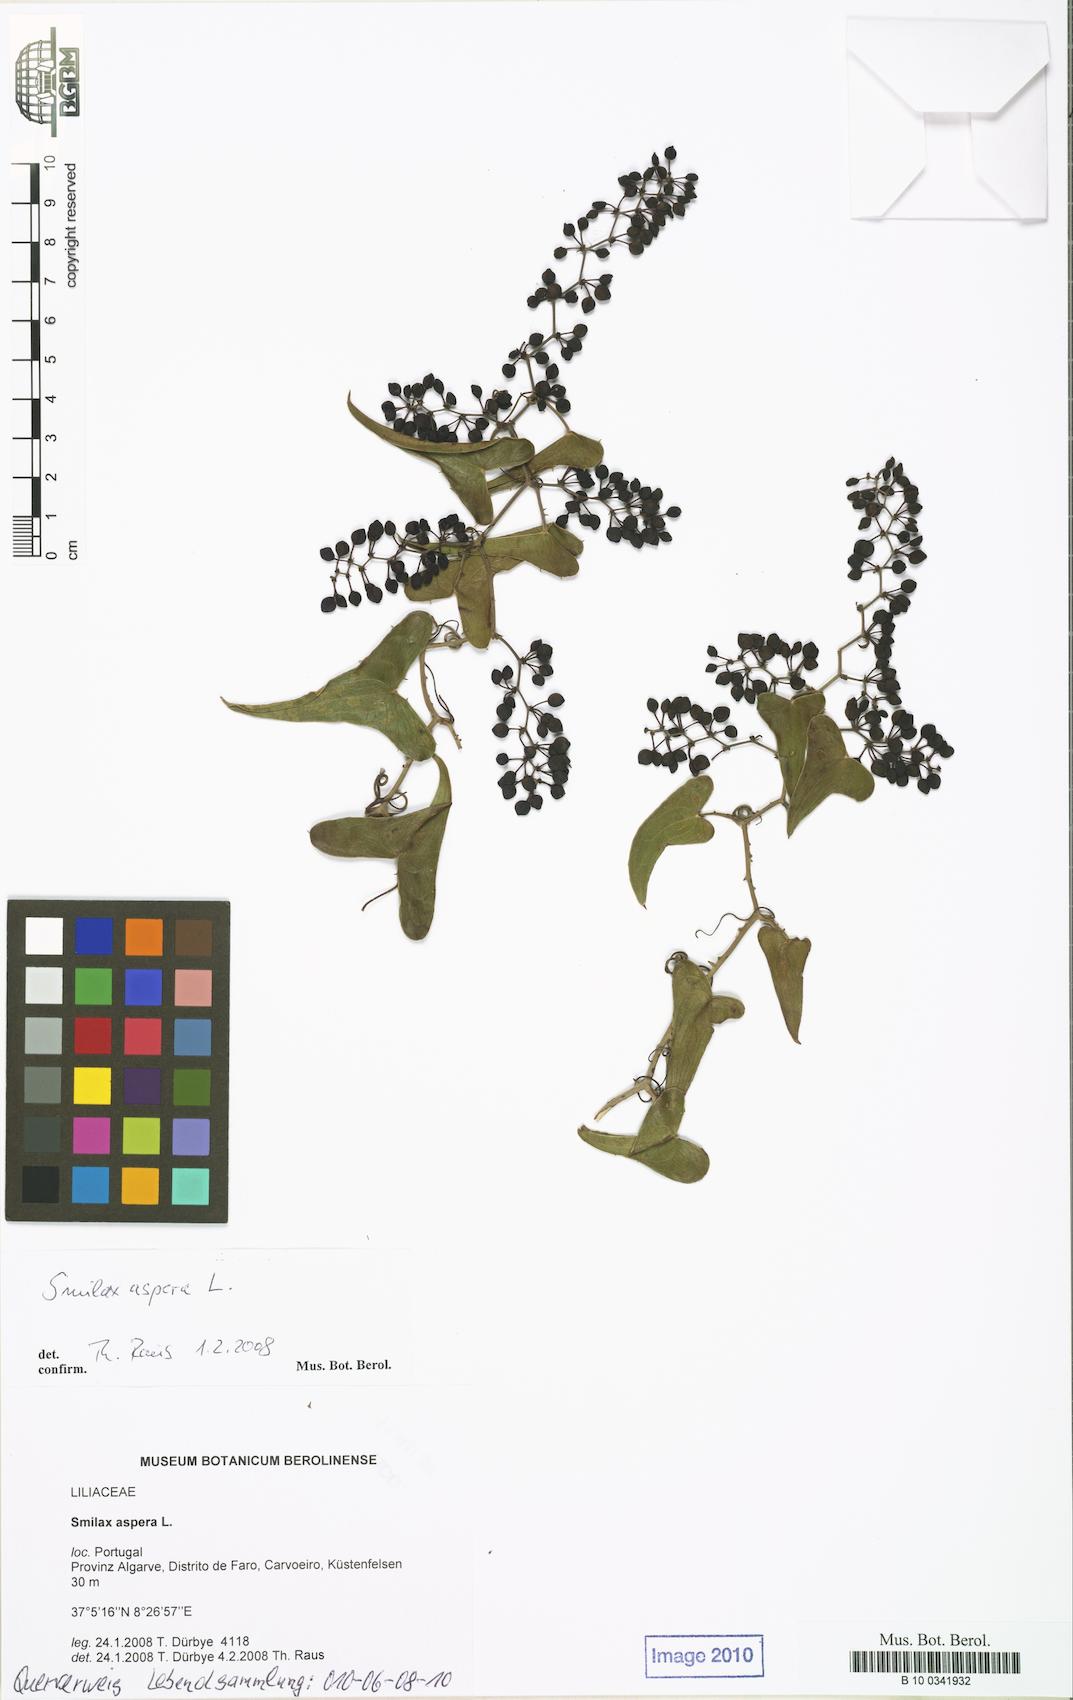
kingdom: Plantae
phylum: Tracheophyta
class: Liliopsida
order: Liliales
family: Smilacaceae
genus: Smilax
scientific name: Smilax aspera
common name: Common smilax
